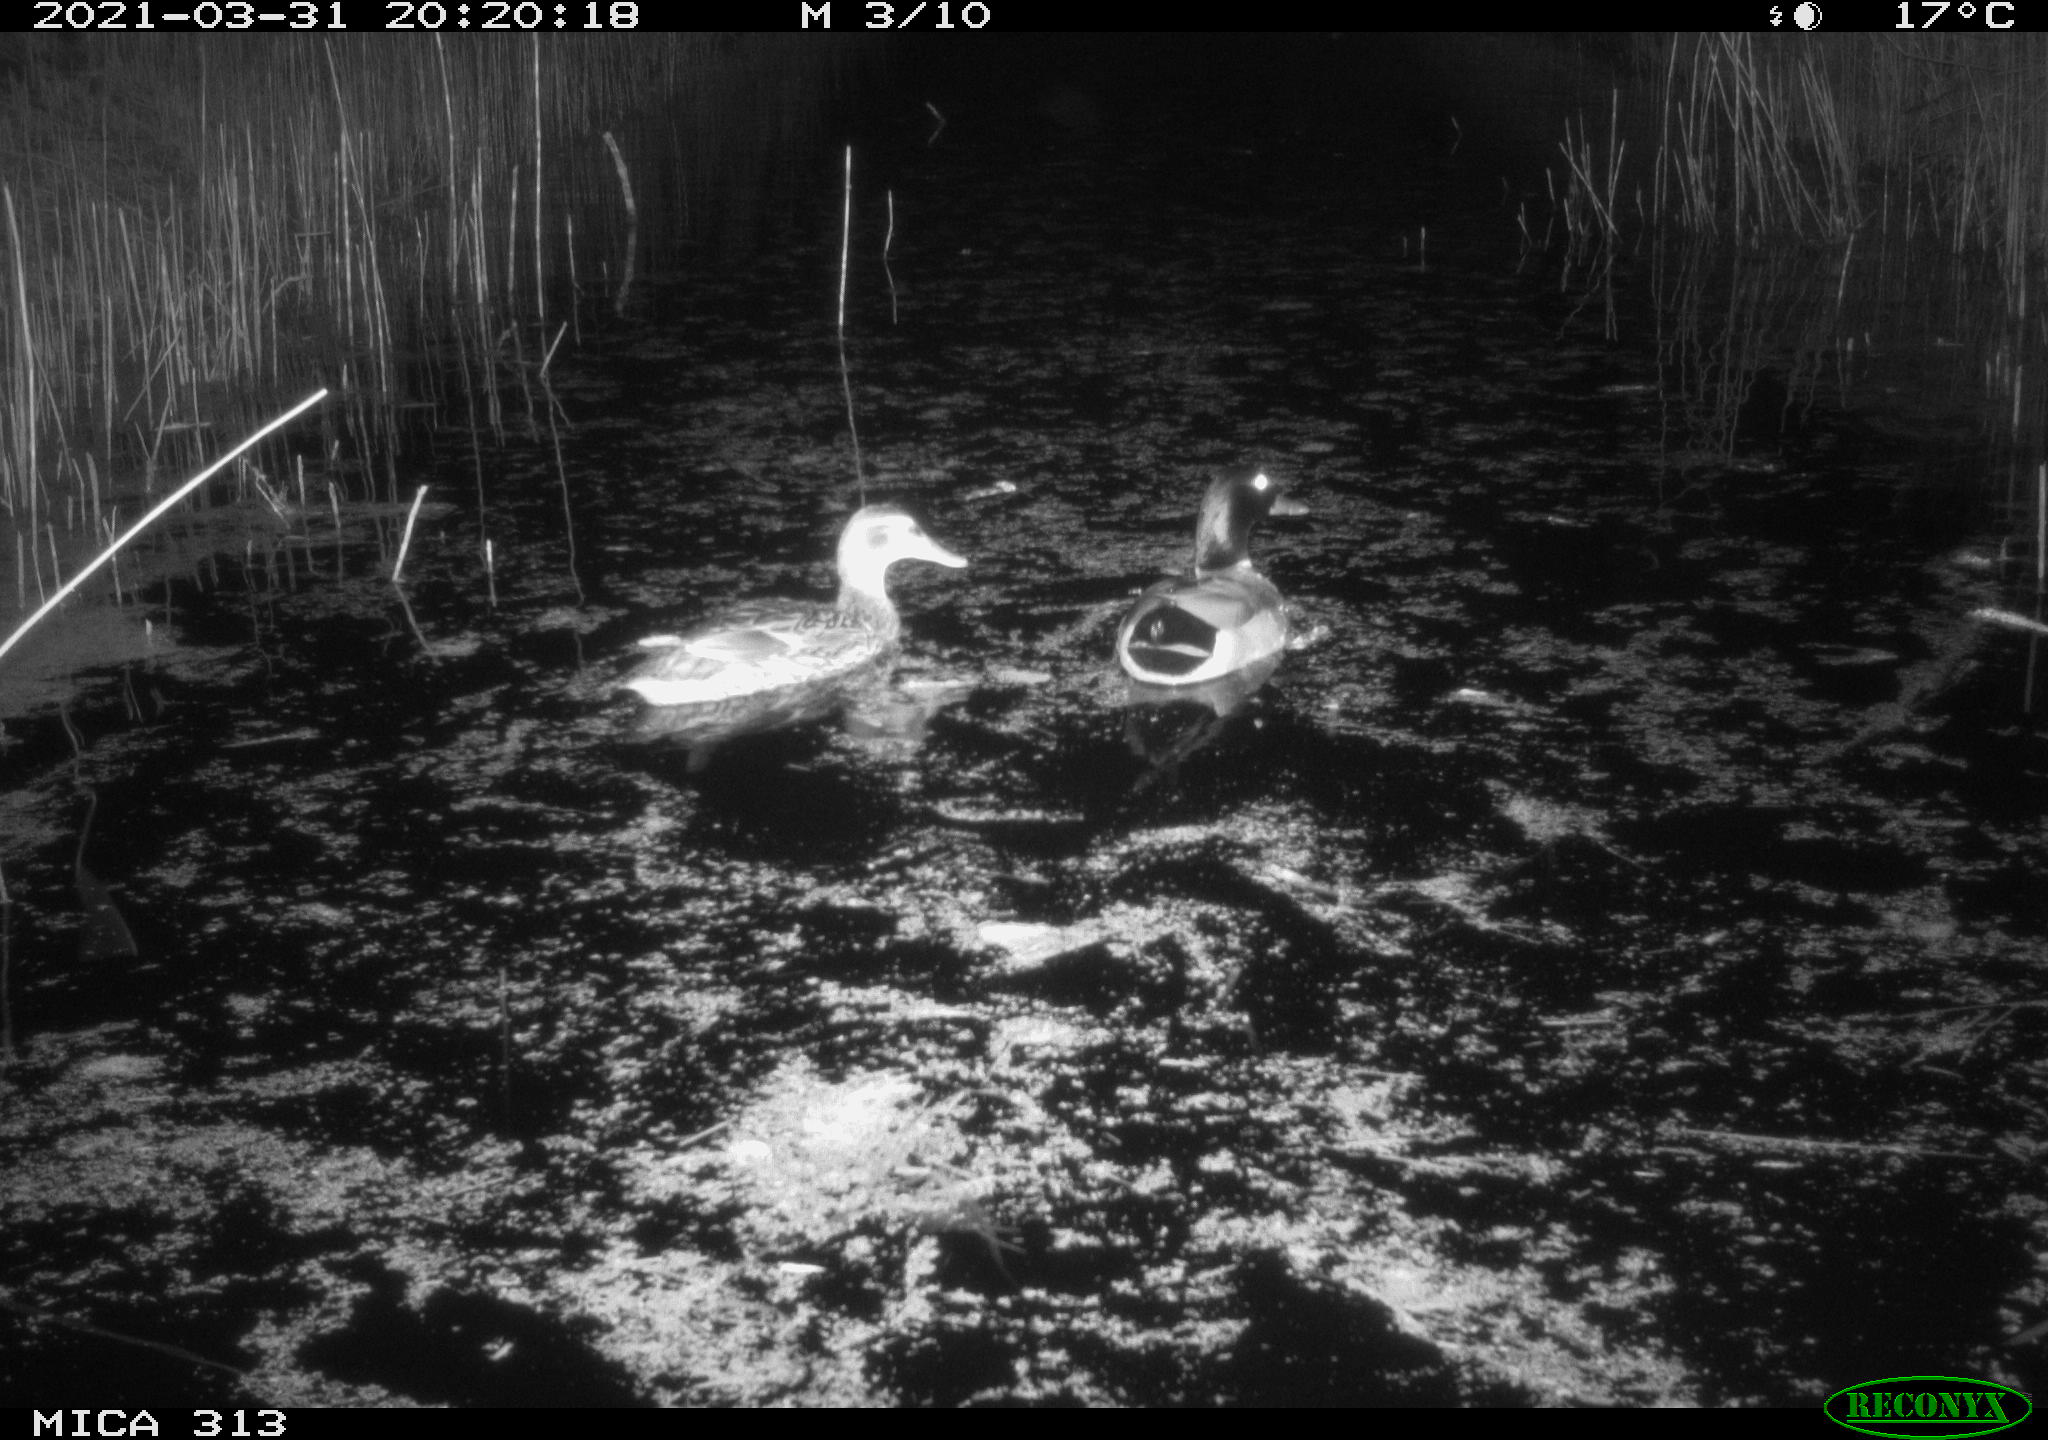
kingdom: Animalia
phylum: Chordata
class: Aves
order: Anseriformes
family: Anatidae
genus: Anas
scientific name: Anas platyrhynchos
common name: Mallard
